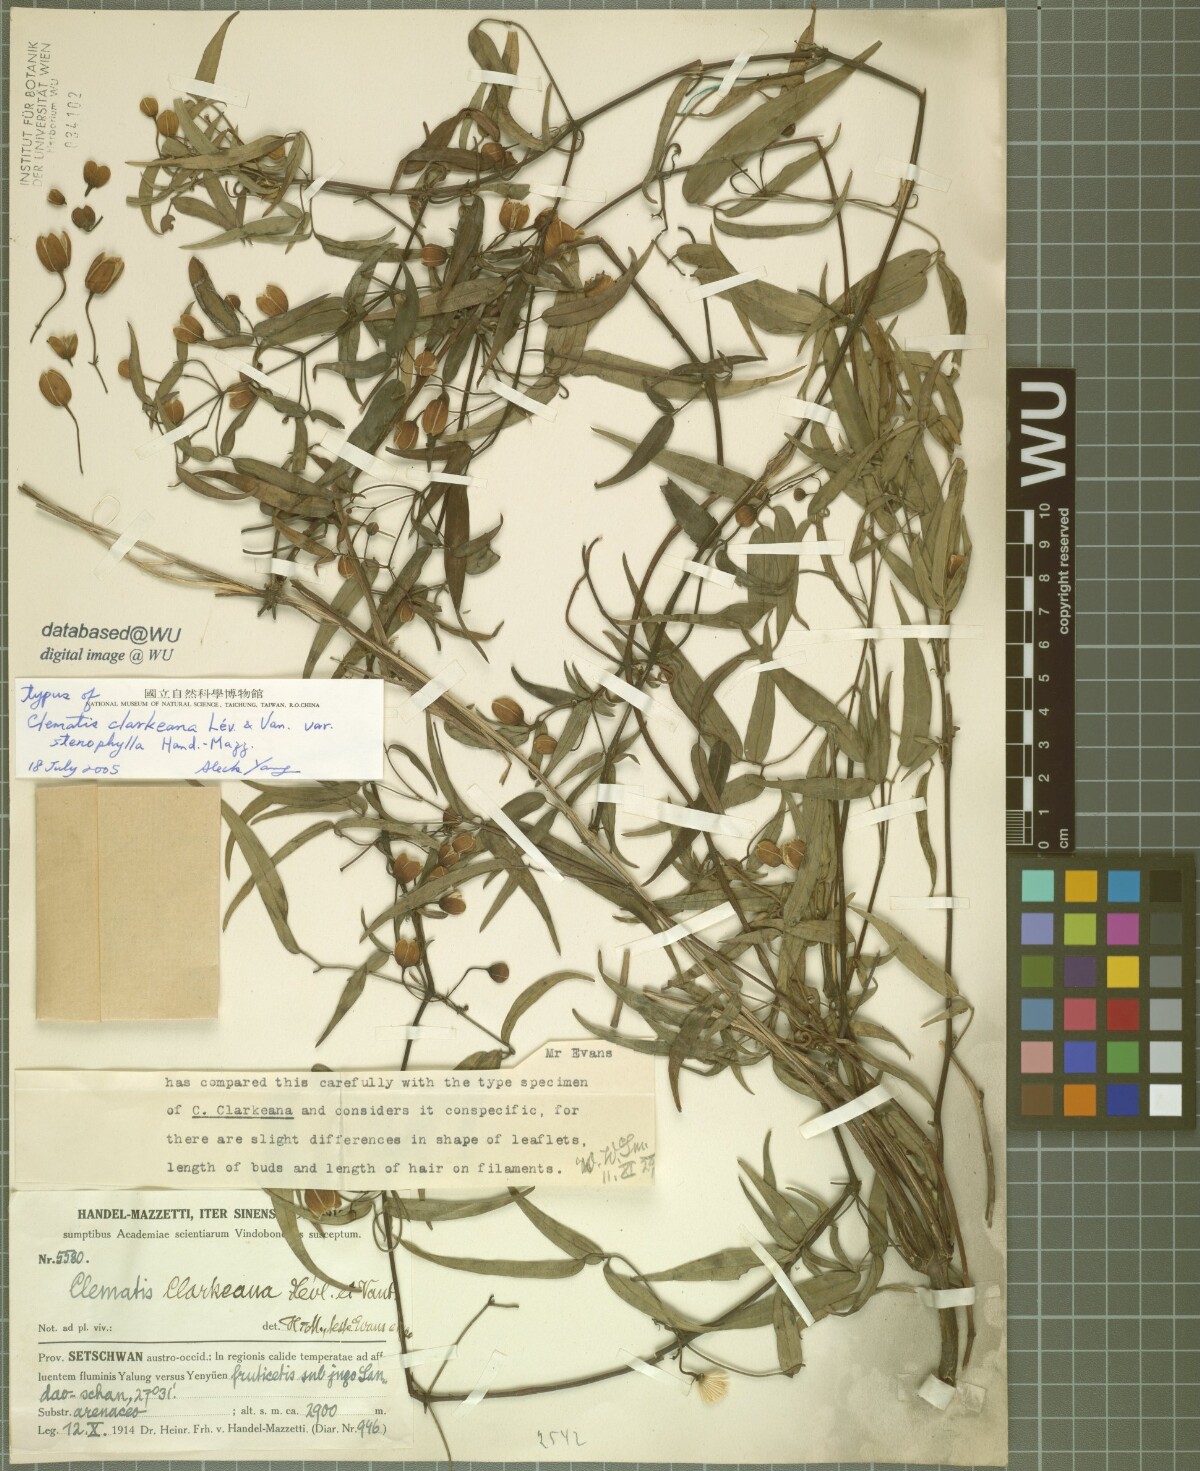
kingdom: Plantae
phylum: Tracheophyta
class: Magnoliopsida
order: Ranunculales
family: Ranunculaceae
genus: Clematis
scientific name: Clematis yunnanensis
